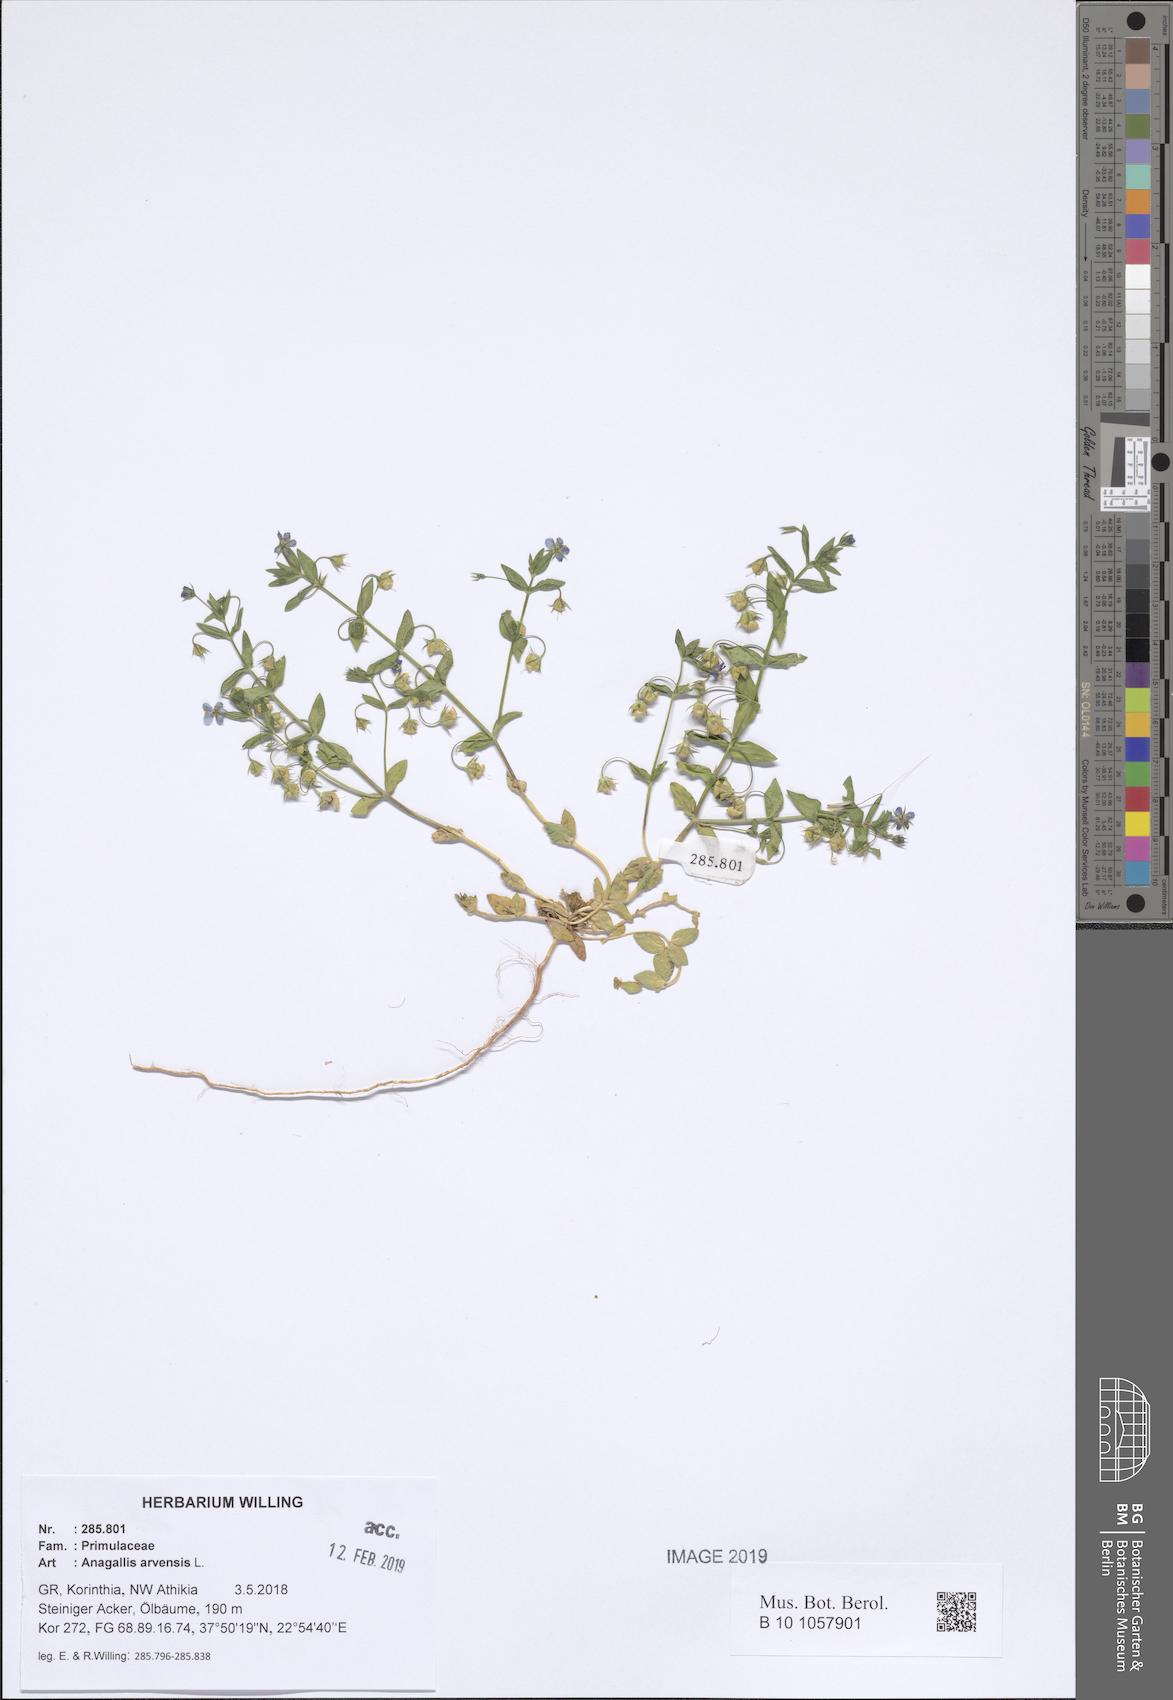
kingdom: Plantae
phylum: Tracheophyta
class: Magnoliopsida
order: Ericales
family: Primulaceae
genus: Lysimachia
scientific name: Lysimachia arvensis
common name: Scarlet pimpernel
